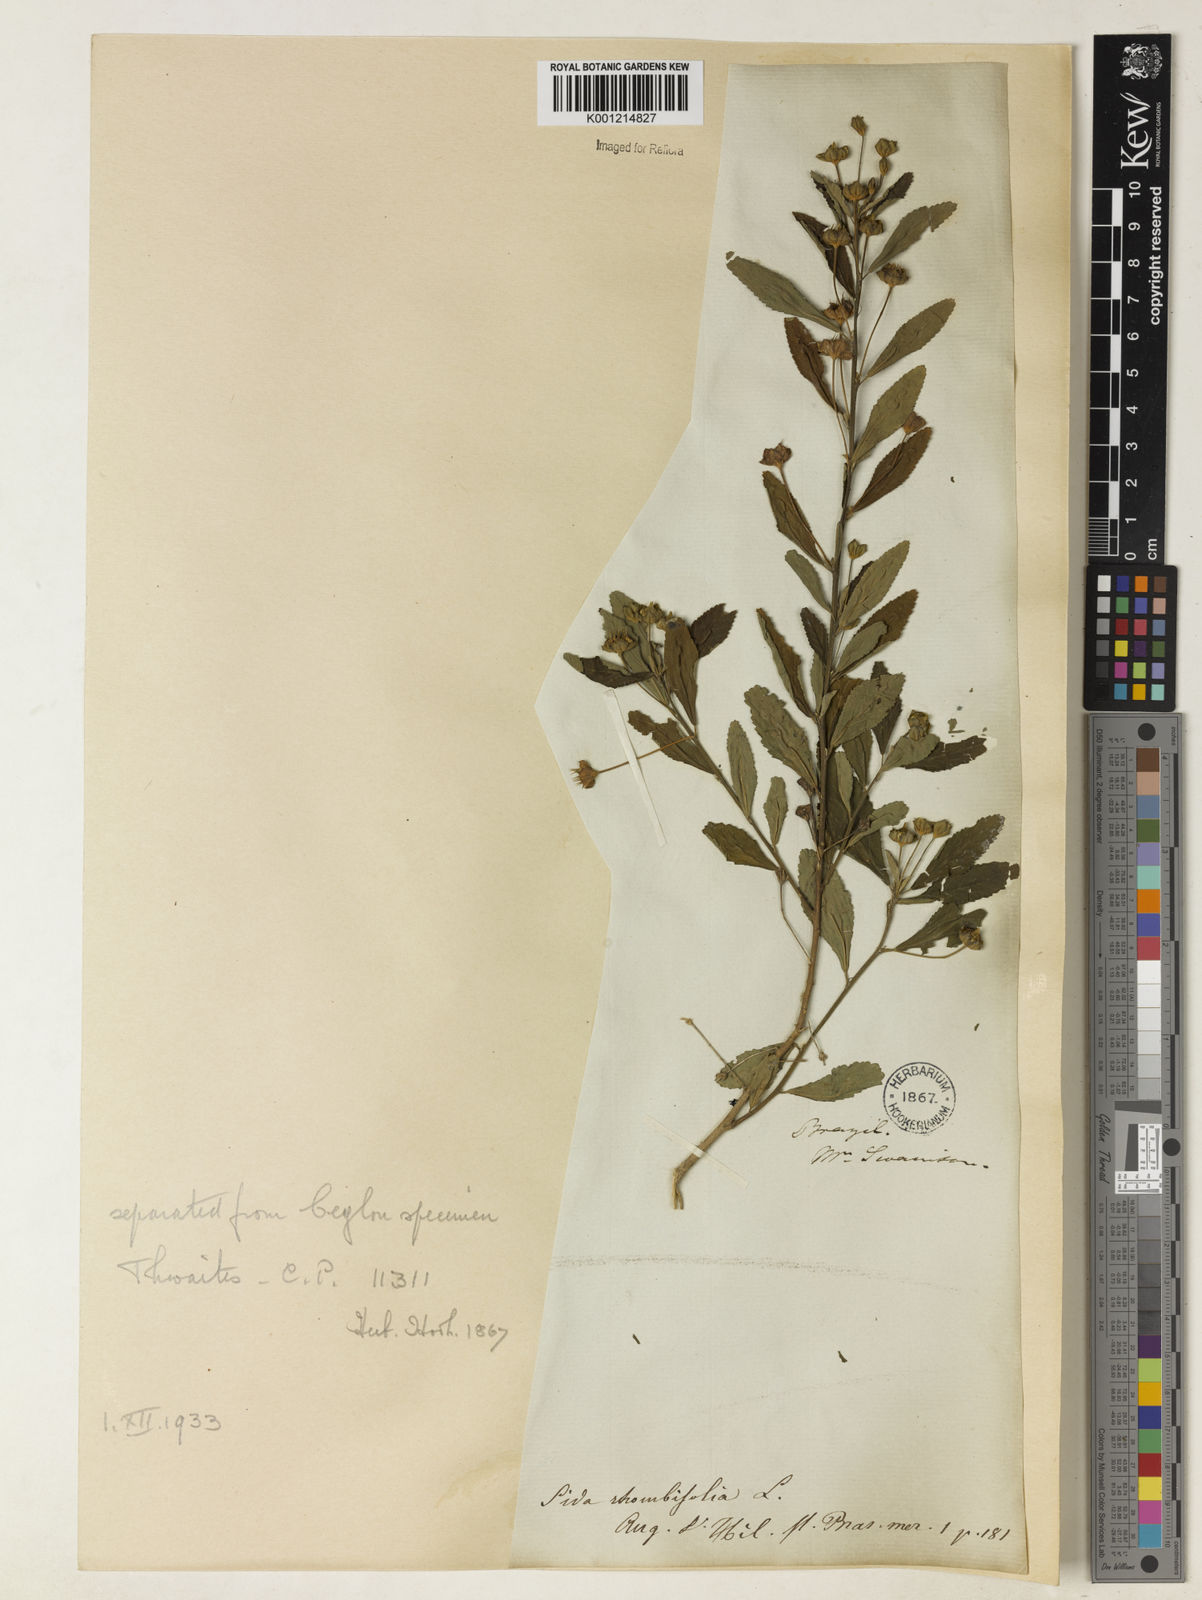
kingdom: Plantae
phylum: Tracheophyta
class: Magnoliopsida
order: Malvales
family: Malvaceae
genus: Sida
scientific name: Sida rhombifolia
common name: Queensland-hemp
